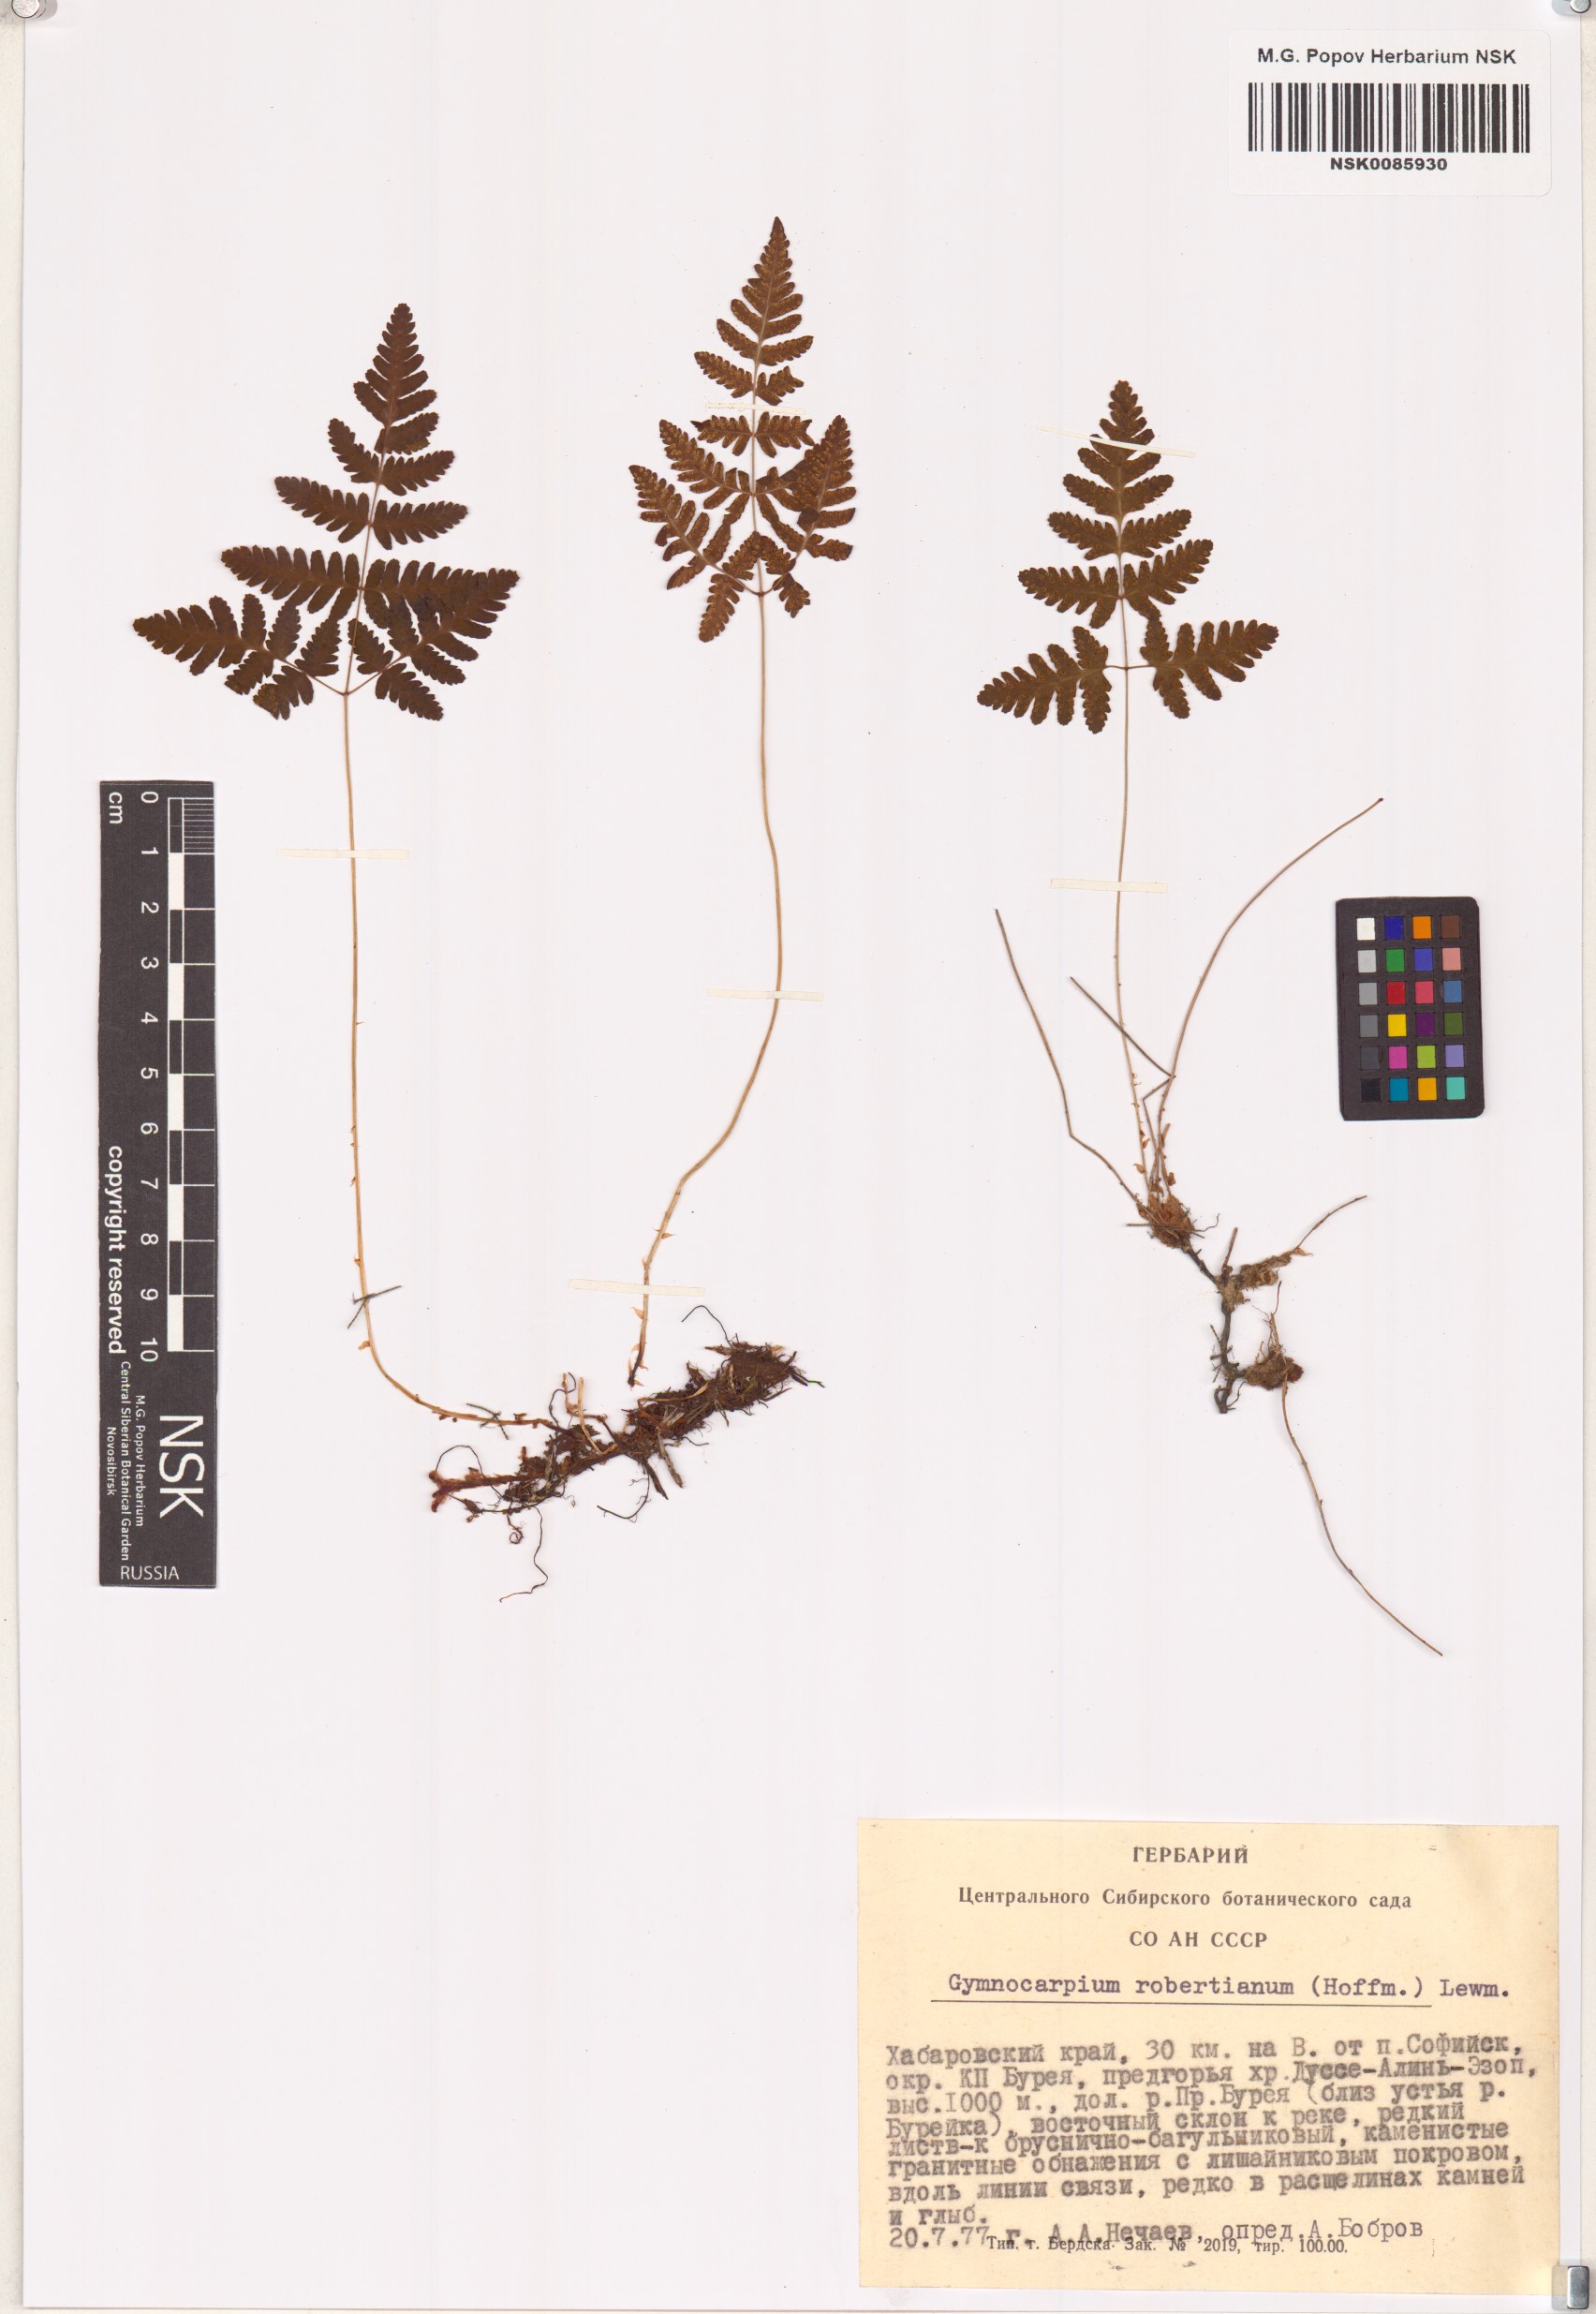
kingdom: Plantae
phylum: Tracheophyta
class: Polypodiopsida
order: Polypodiales
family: Cystopteridaceae
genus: Gymnocarpium
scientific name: Gymnocarpium robertianum
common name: Limestone fern
